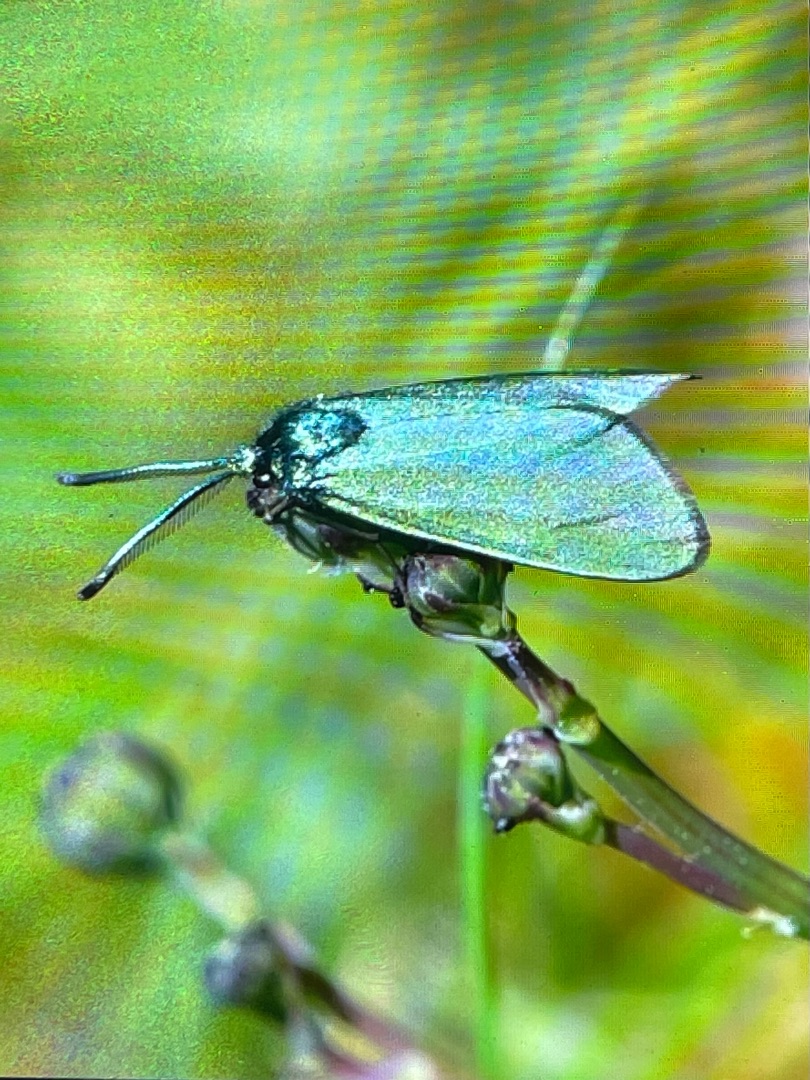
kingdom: Animalia
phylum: Arthropoda
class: Insecta
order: Lepidoptera
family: Zygaenidae
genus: Adscita
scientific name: Adscita statices
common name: Metalvinge
